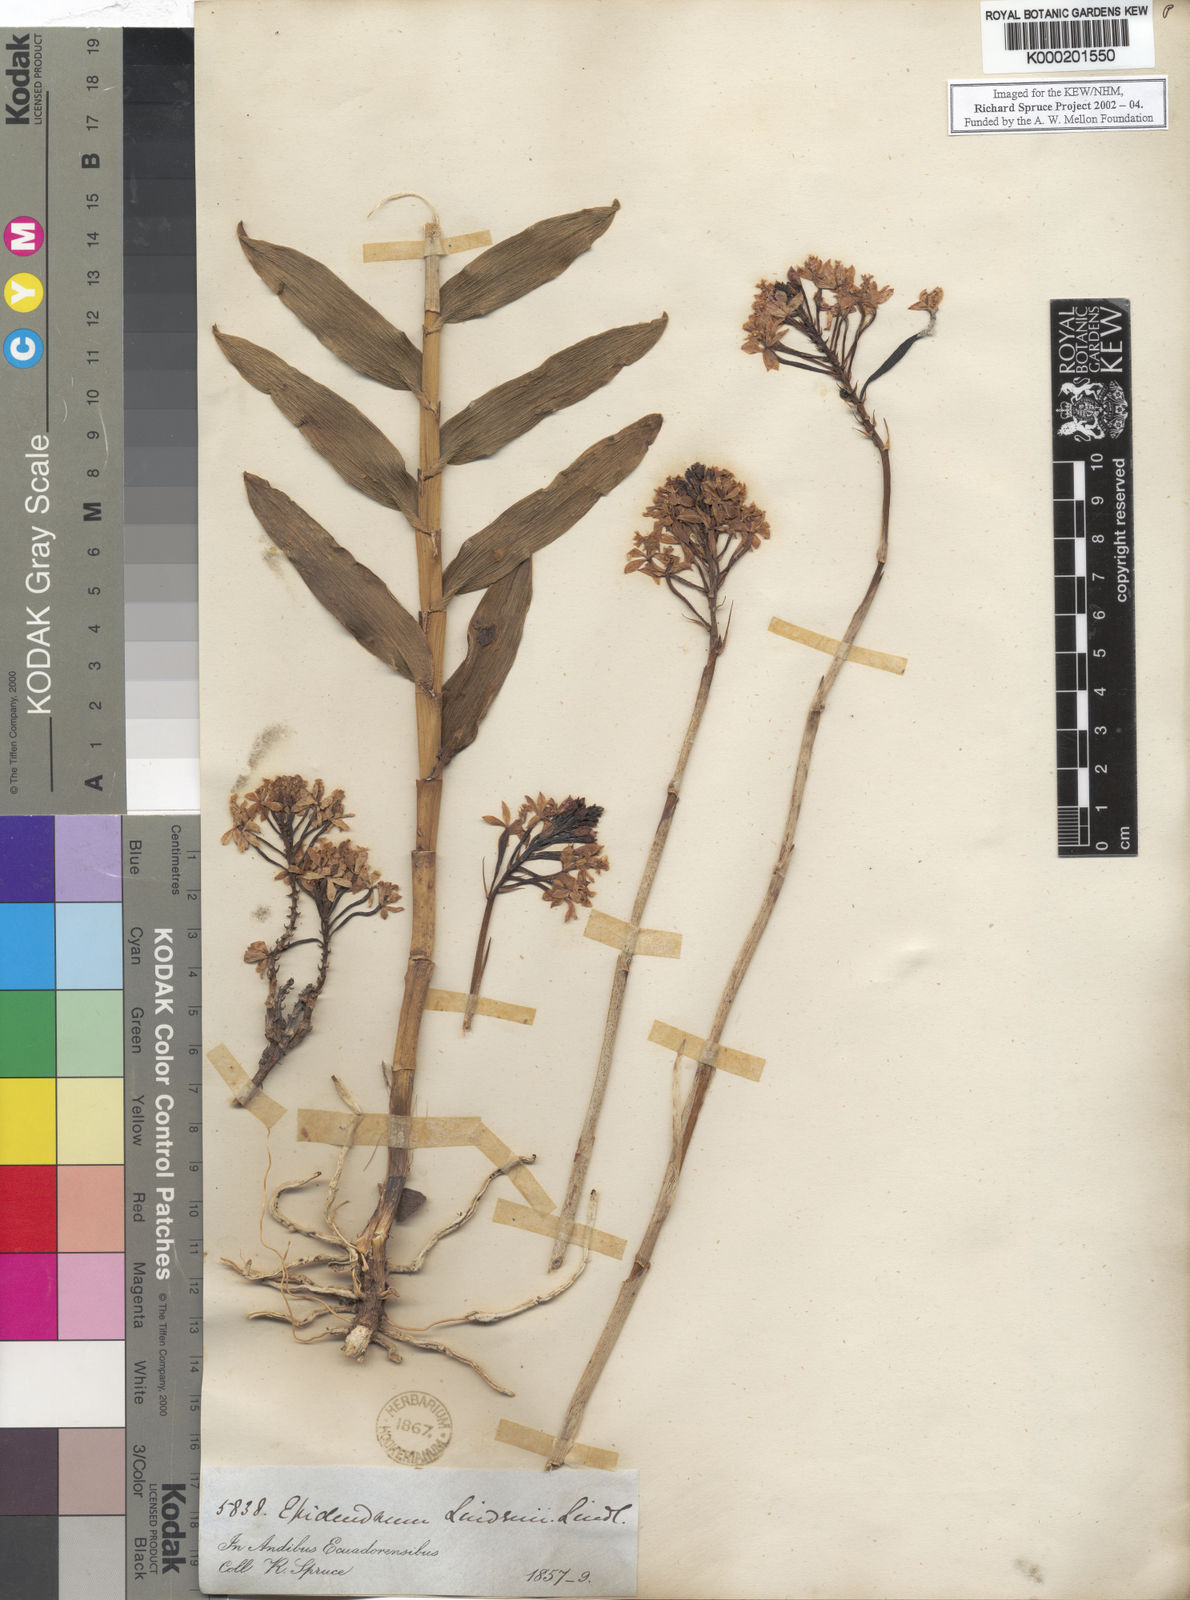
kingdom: Plantae
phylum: Tracheophyta
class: Liliopsida
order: Asparagales
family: Orchidaceae
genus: Epidendrum
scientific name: Epidendrum dichotomum
